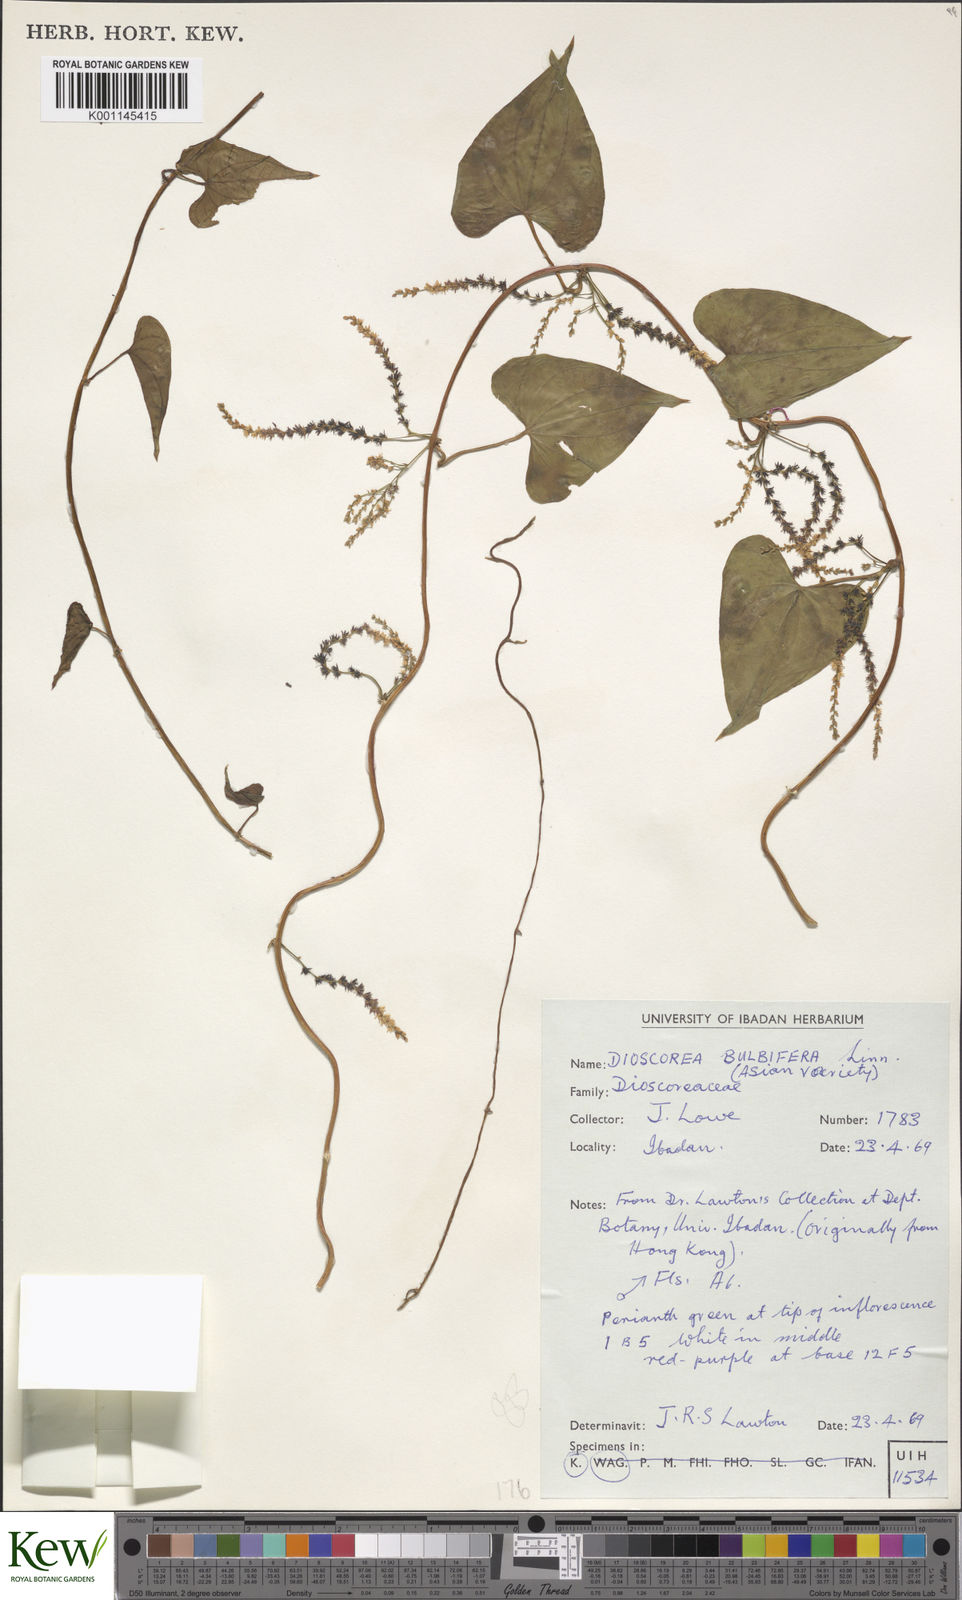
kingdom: Plantae
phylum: Tracheophyta
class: Liliopsida
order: Dioscoreales
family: Dioscoreaceae
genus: Dioscorea
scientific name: Dioscorea bulbifera
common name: Air yam
